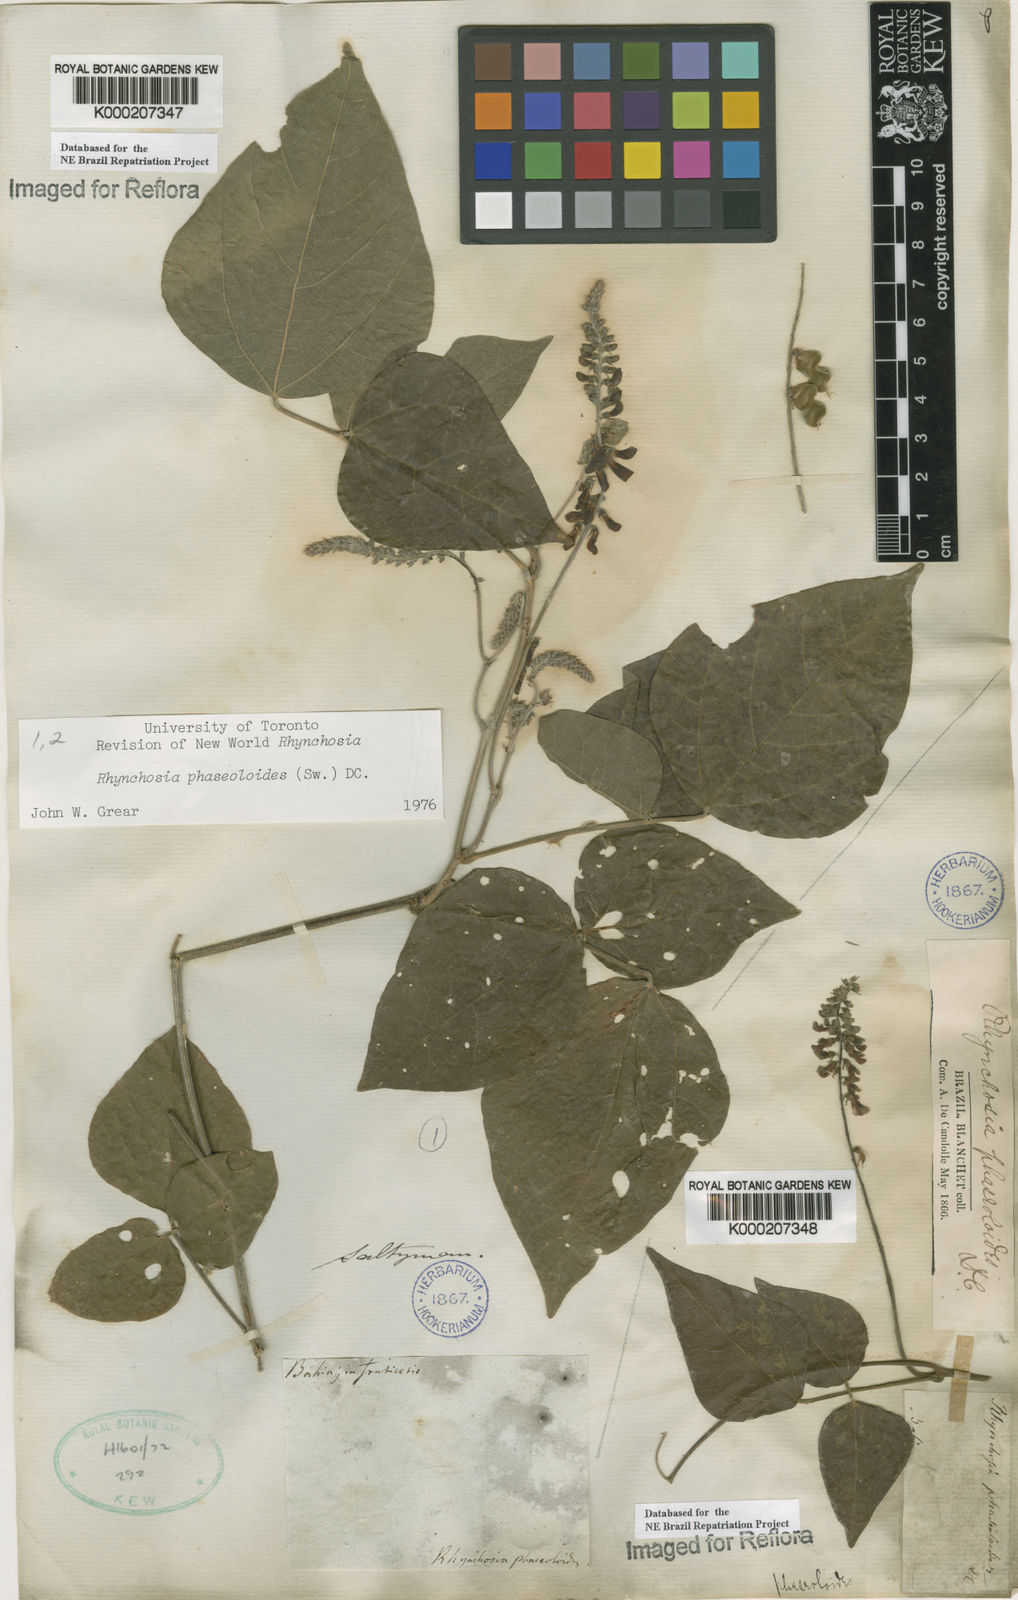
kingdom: Plantae
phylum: Tracheophyta
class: Magnoliopsida
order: Fabales
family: Fabaceae
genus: Rhynchosia
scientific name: Rhynchosia phaseoloides
